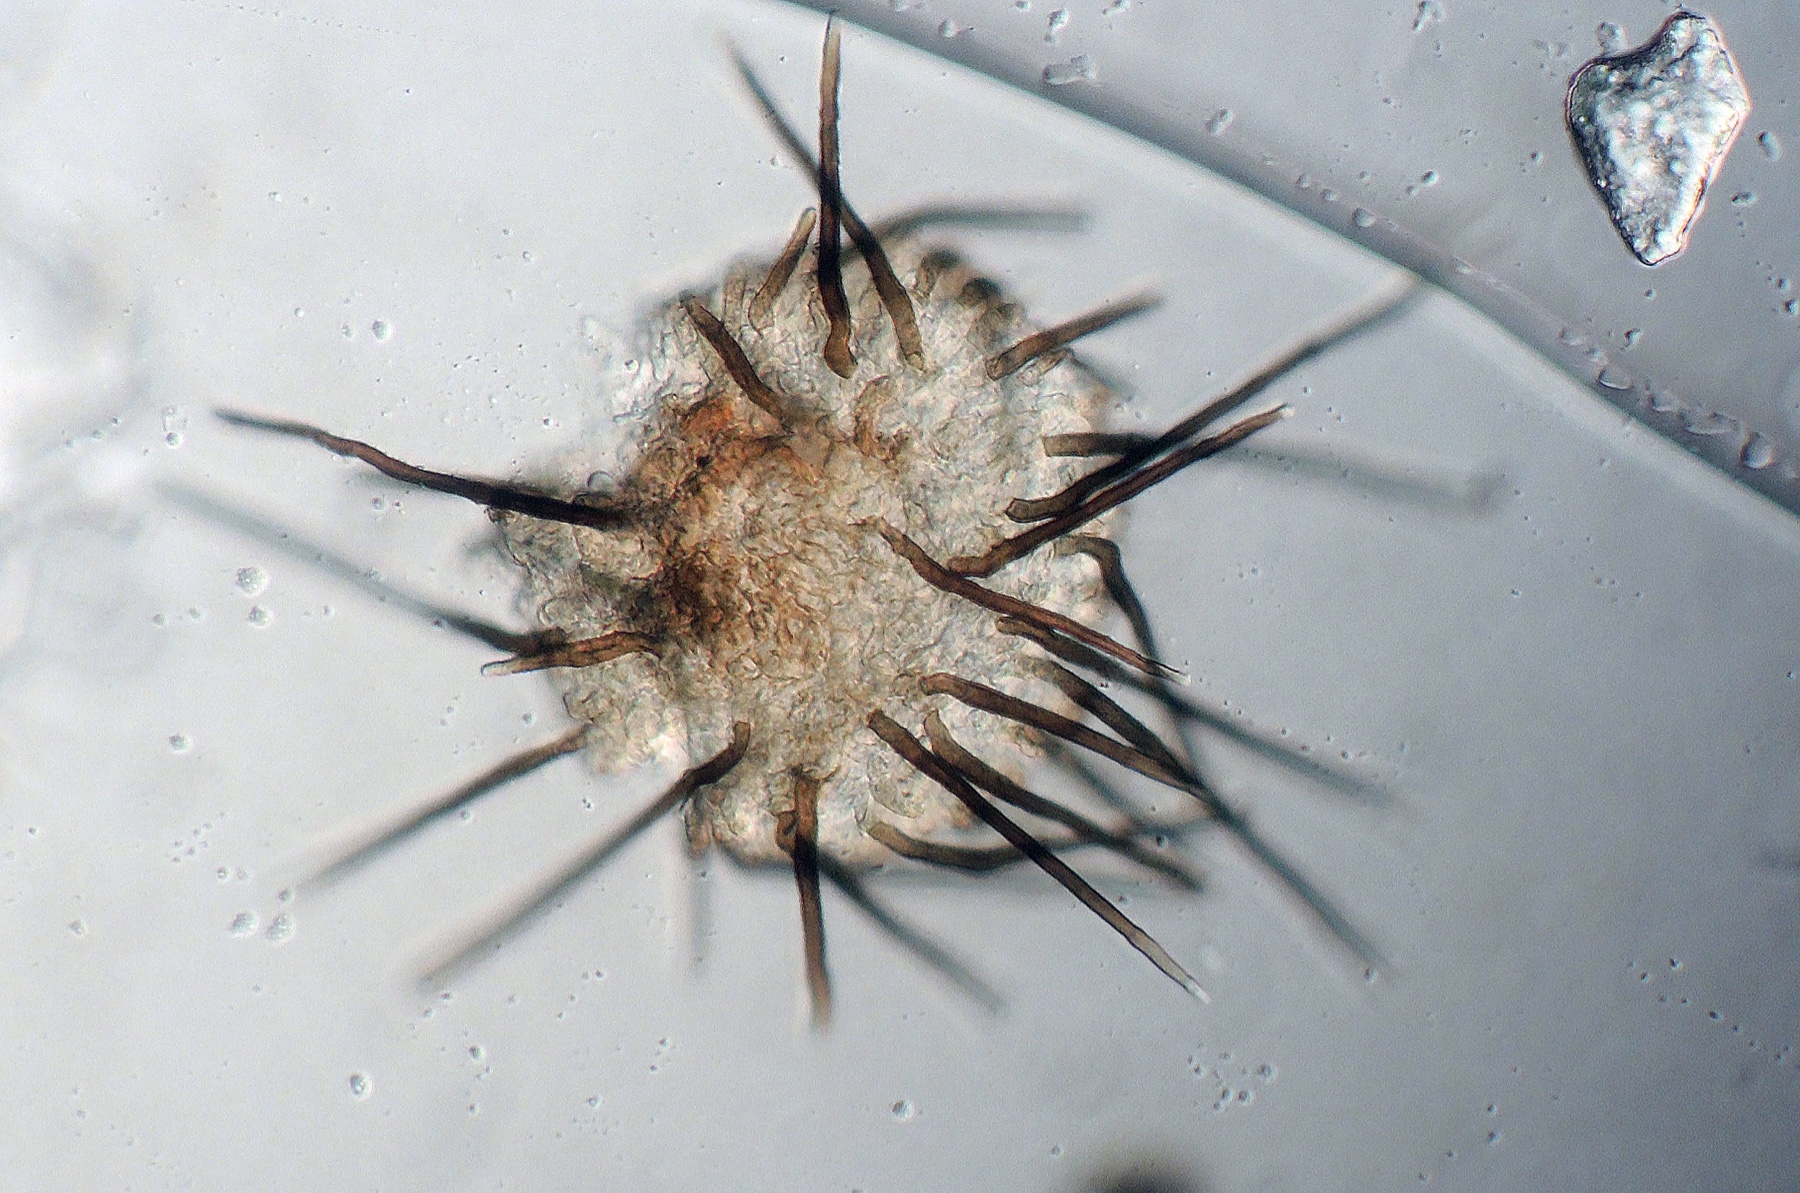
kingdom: Fungi
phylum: Ascomycota
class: Leotiomycetes
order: Helotiales
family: Hyphodiscaceae
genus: Venturiocistella
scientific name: Venturiocistella pini
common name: fyrre-tveskægskive
